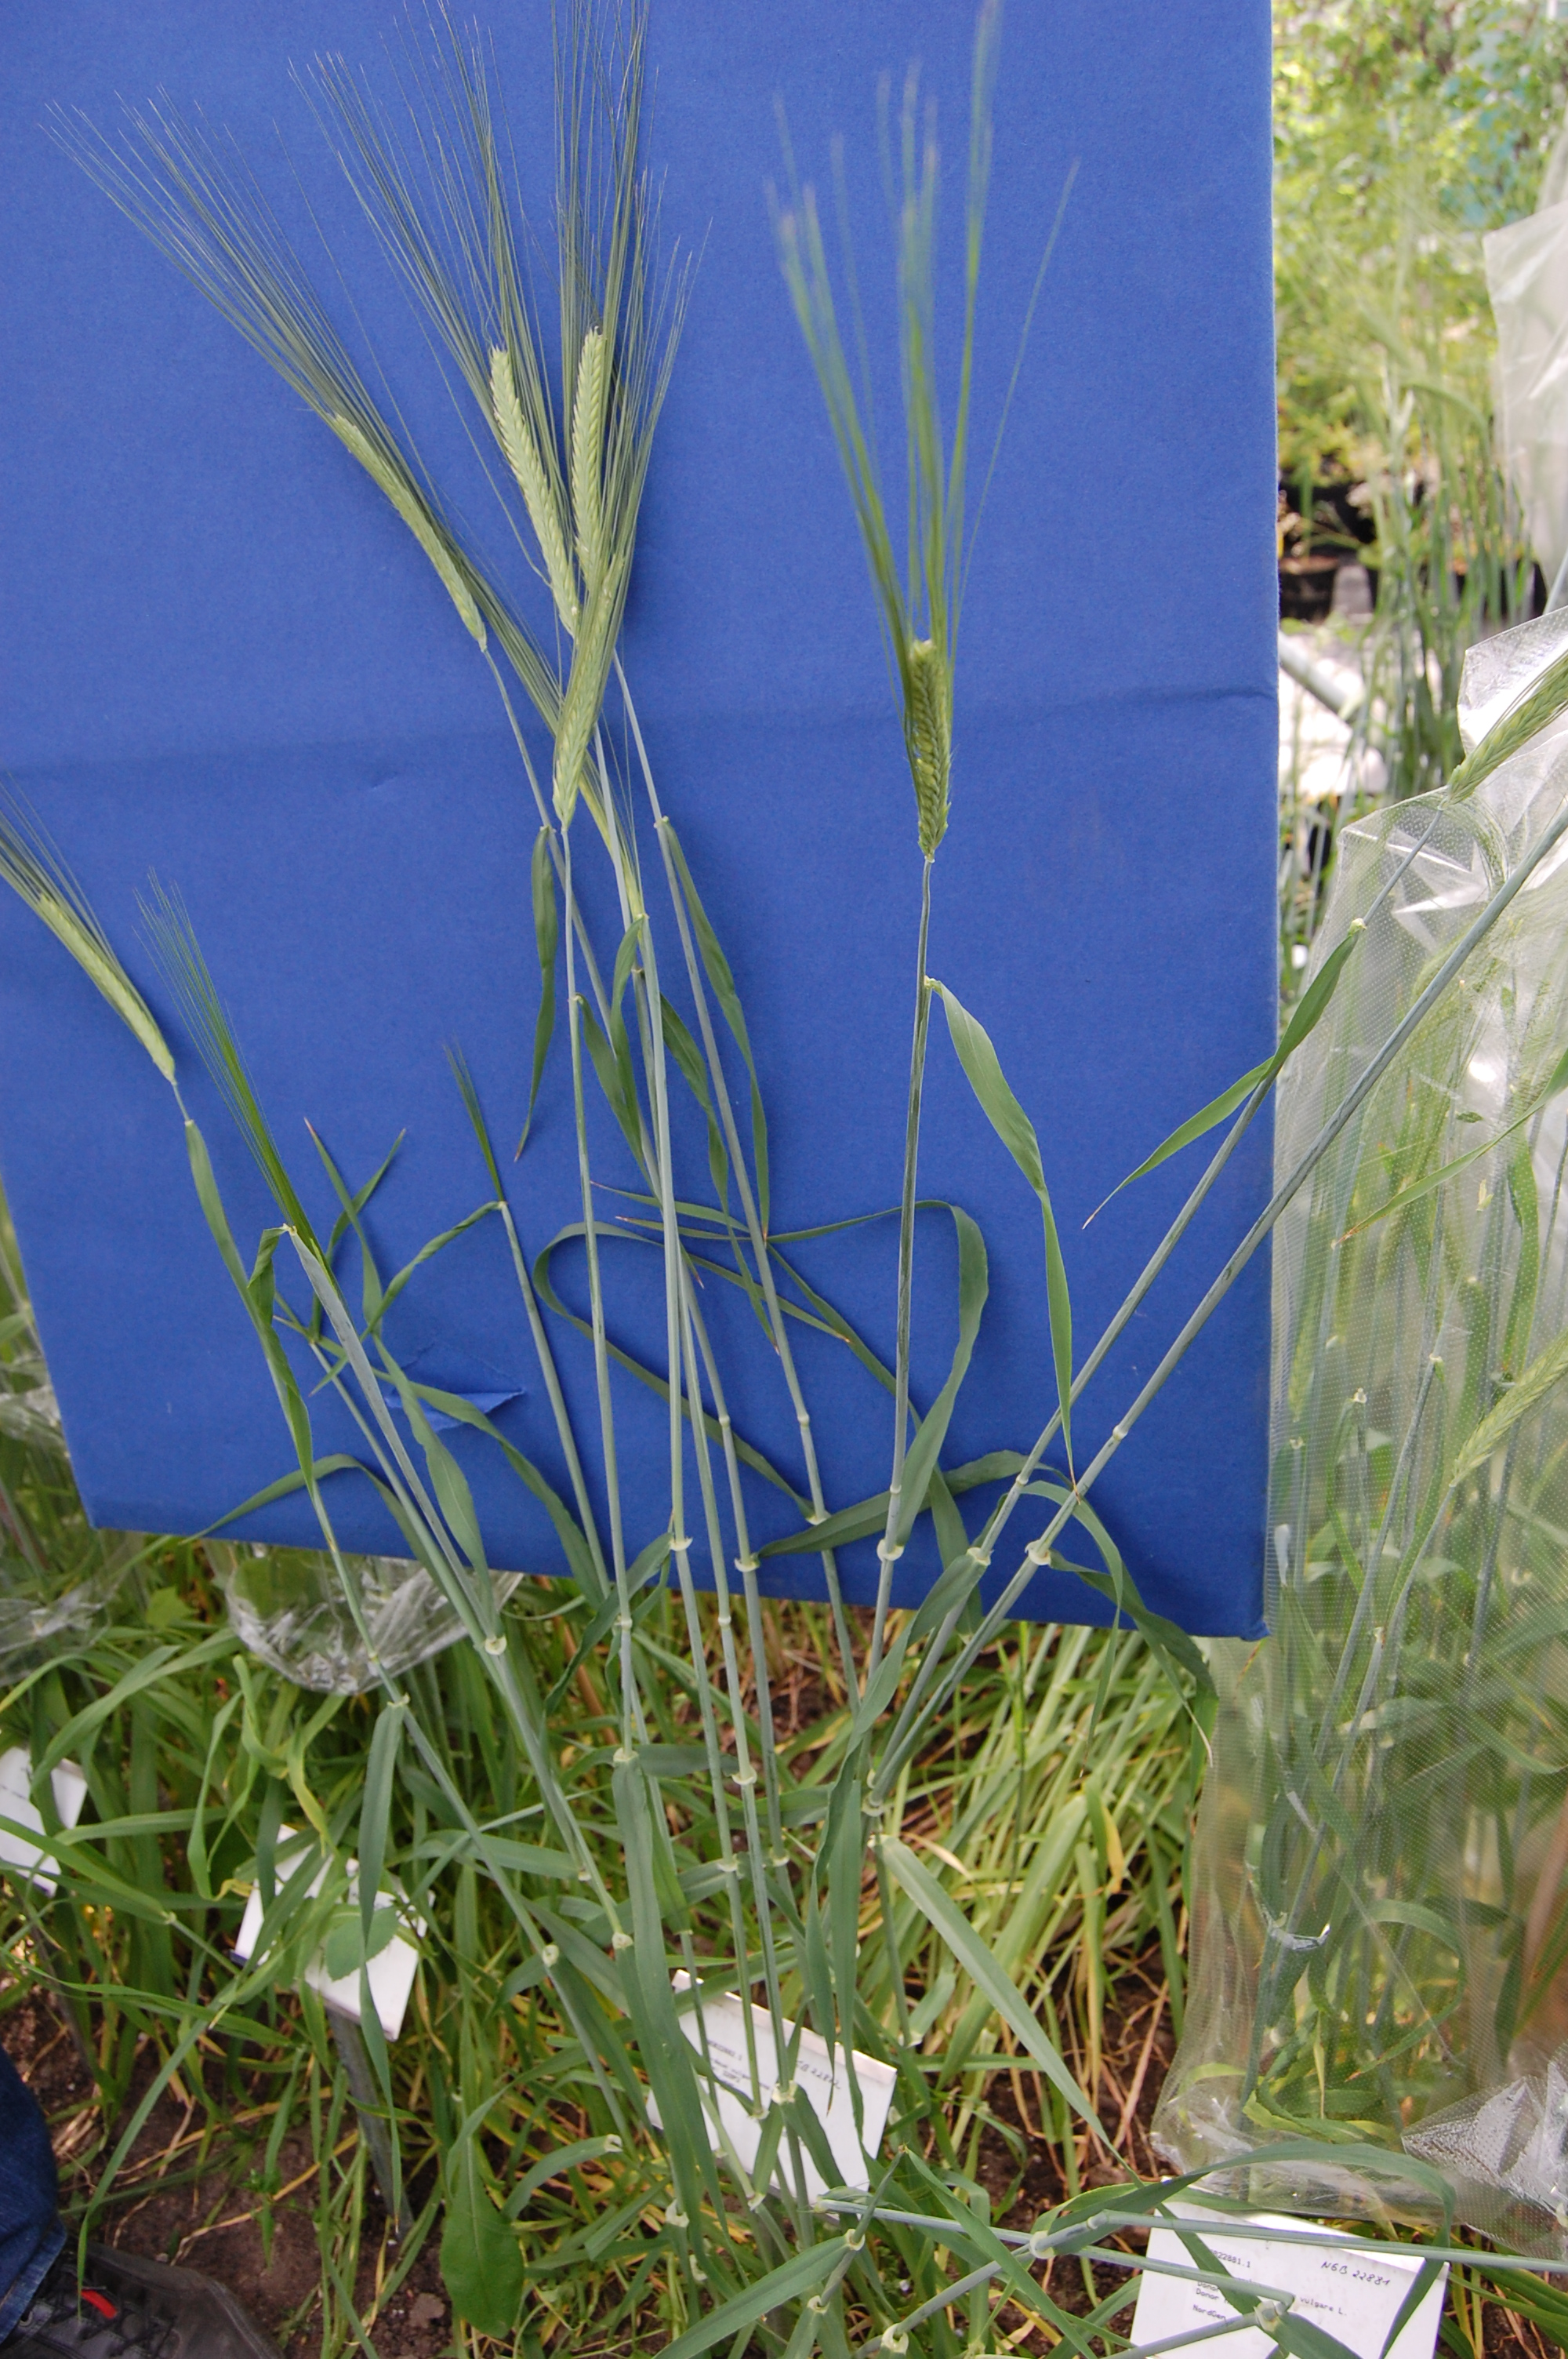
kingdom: Plantae
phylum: Tracheophyta
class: Liliopsida
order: Poales
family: Poaceae
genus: Hordeum
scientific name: Hordeum vulgare
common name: Common barley
